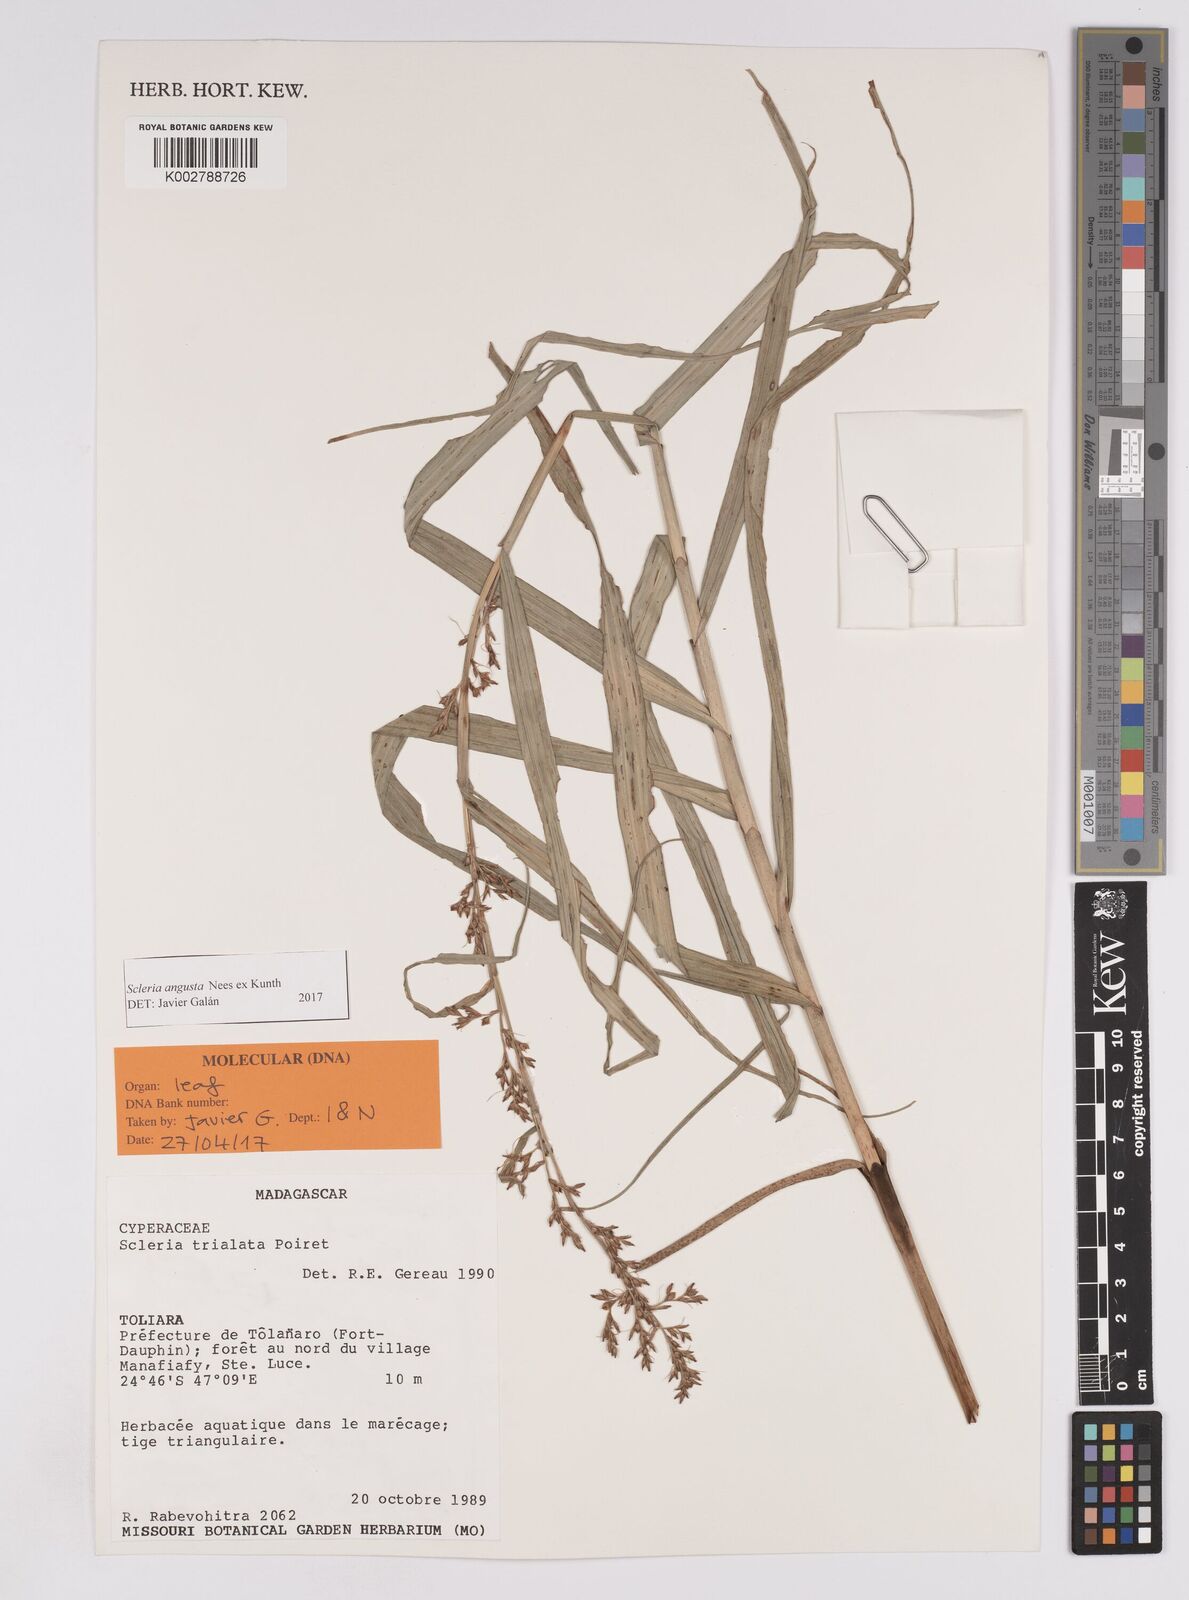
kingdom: Plantae
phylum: Tracheophyta
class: Liliopsida
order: Poales
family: Cyperaceae
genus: Scleria
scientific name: Scleria angusta
